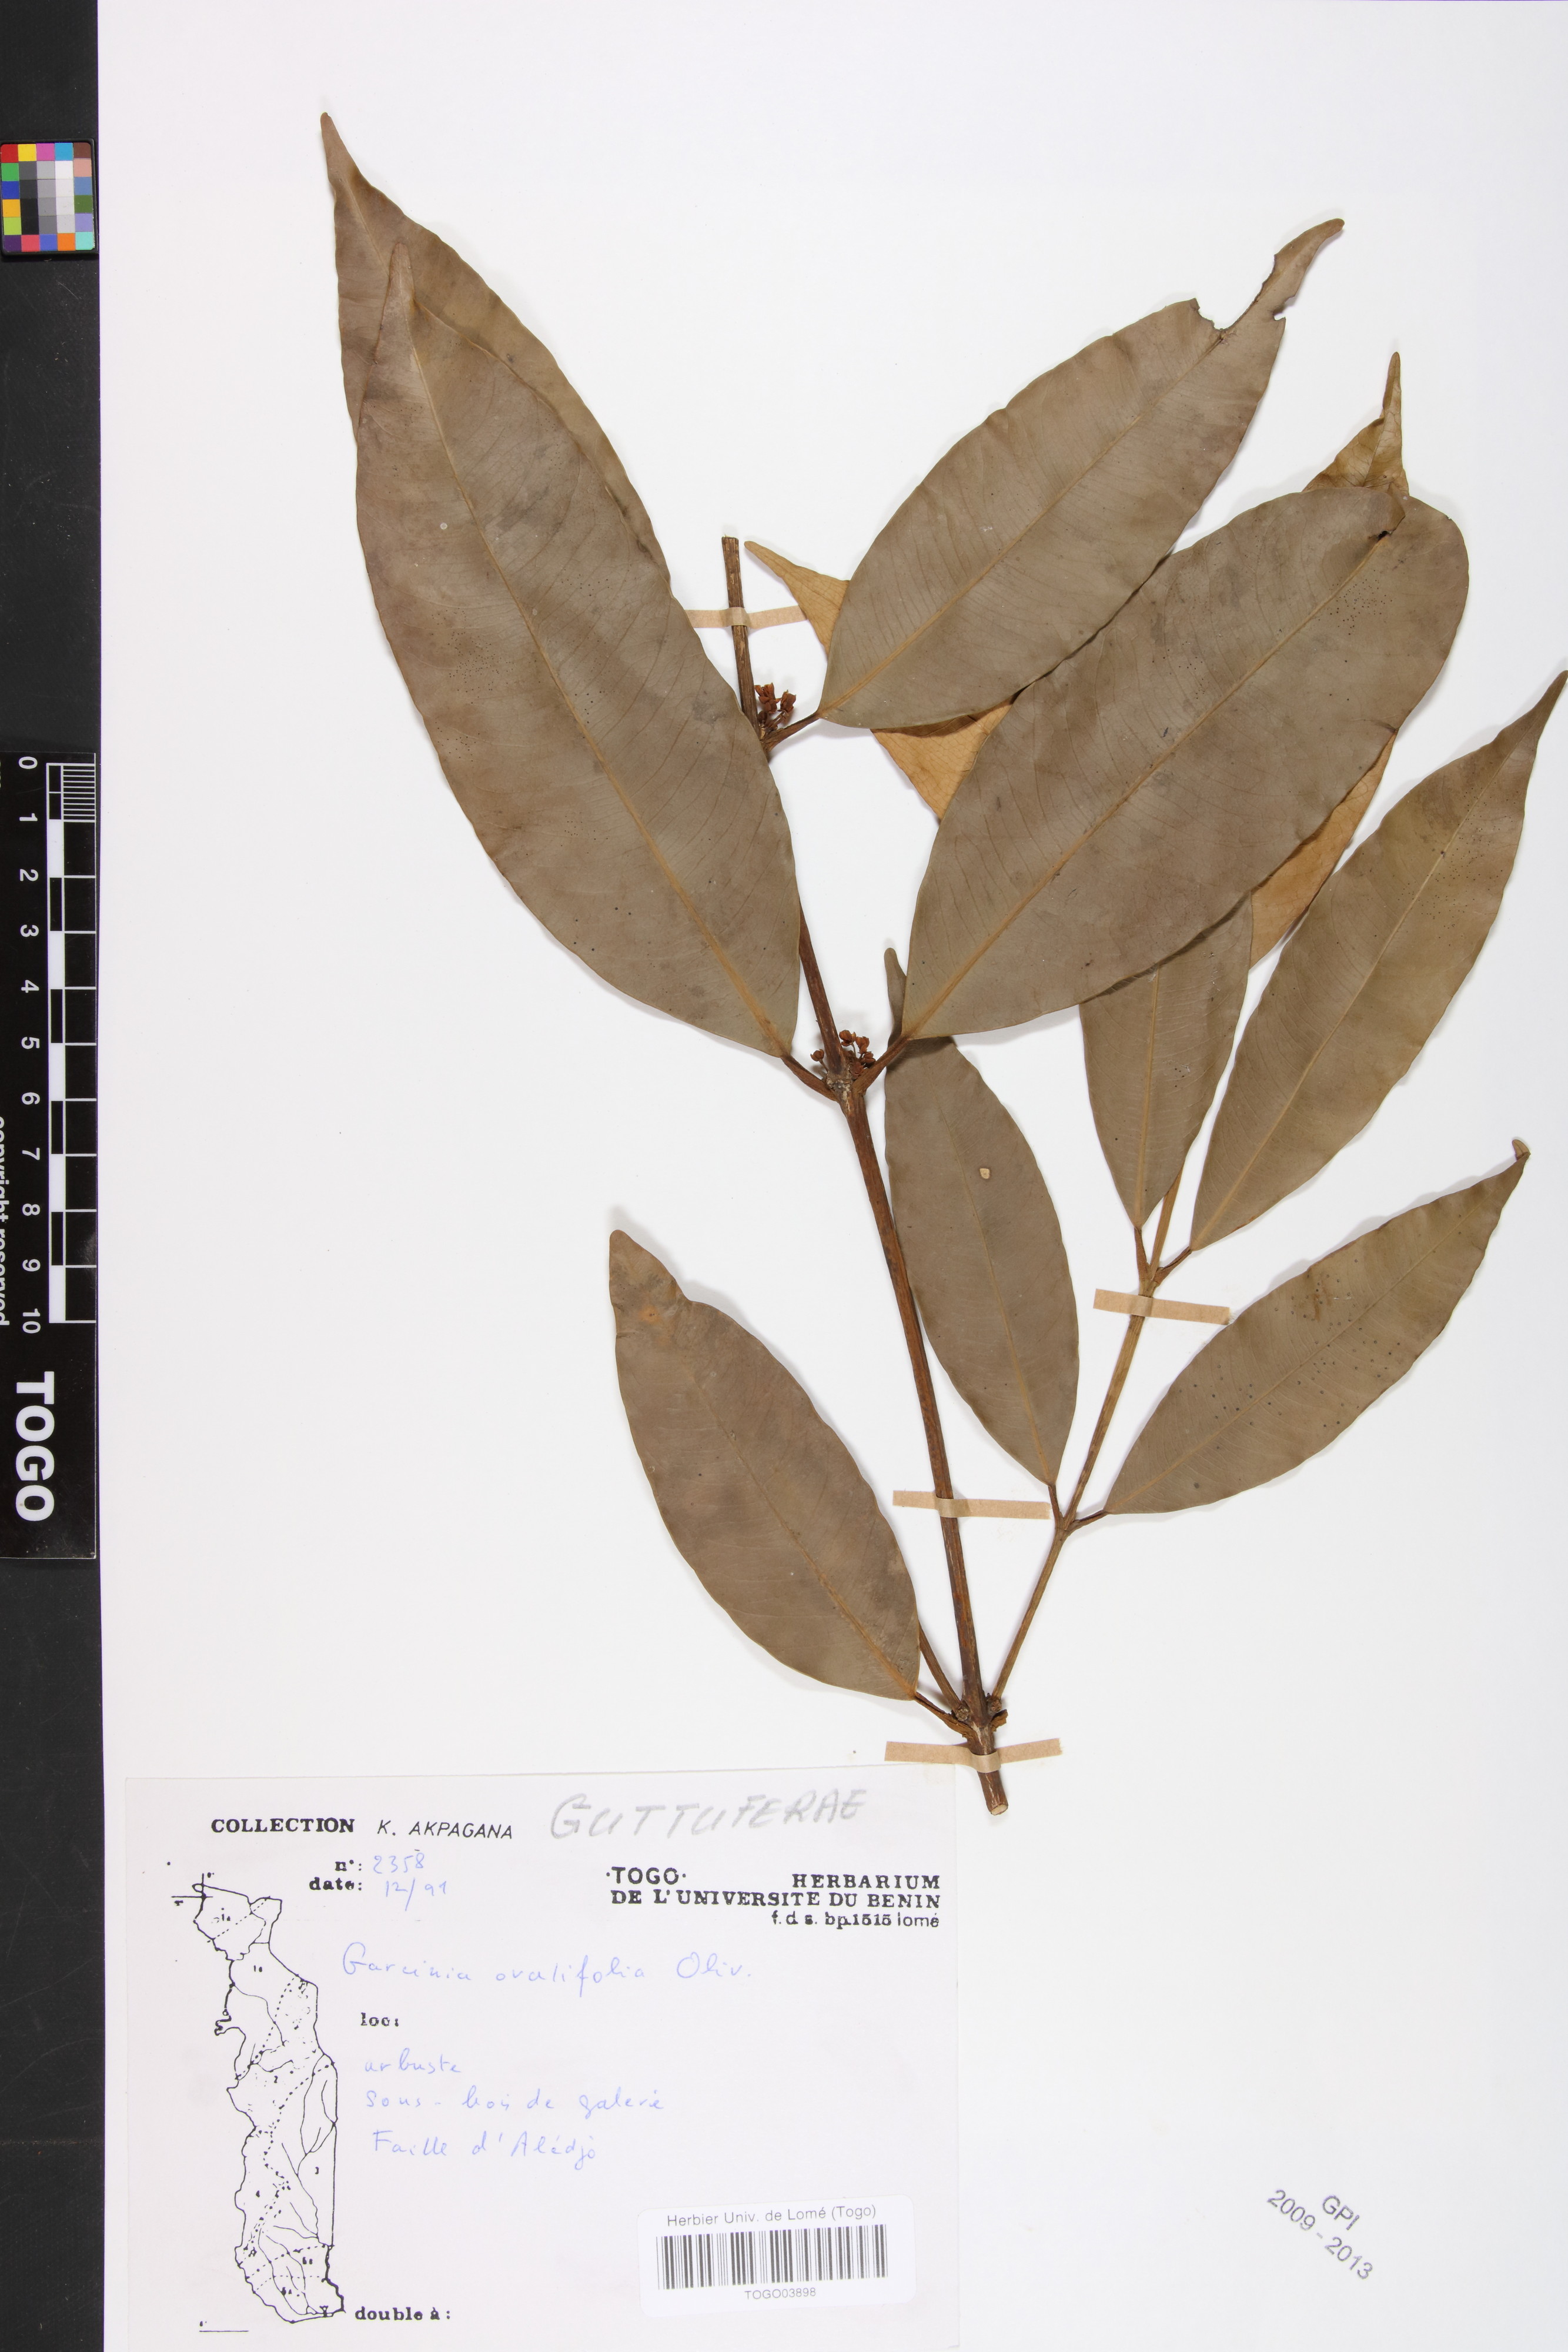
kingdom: Plantae
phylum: Tracheophyta
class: Magnoliopsida
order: Malpighiales
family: Clusiaceae
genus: Garcinia
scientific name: Garcinia ovalifolia
